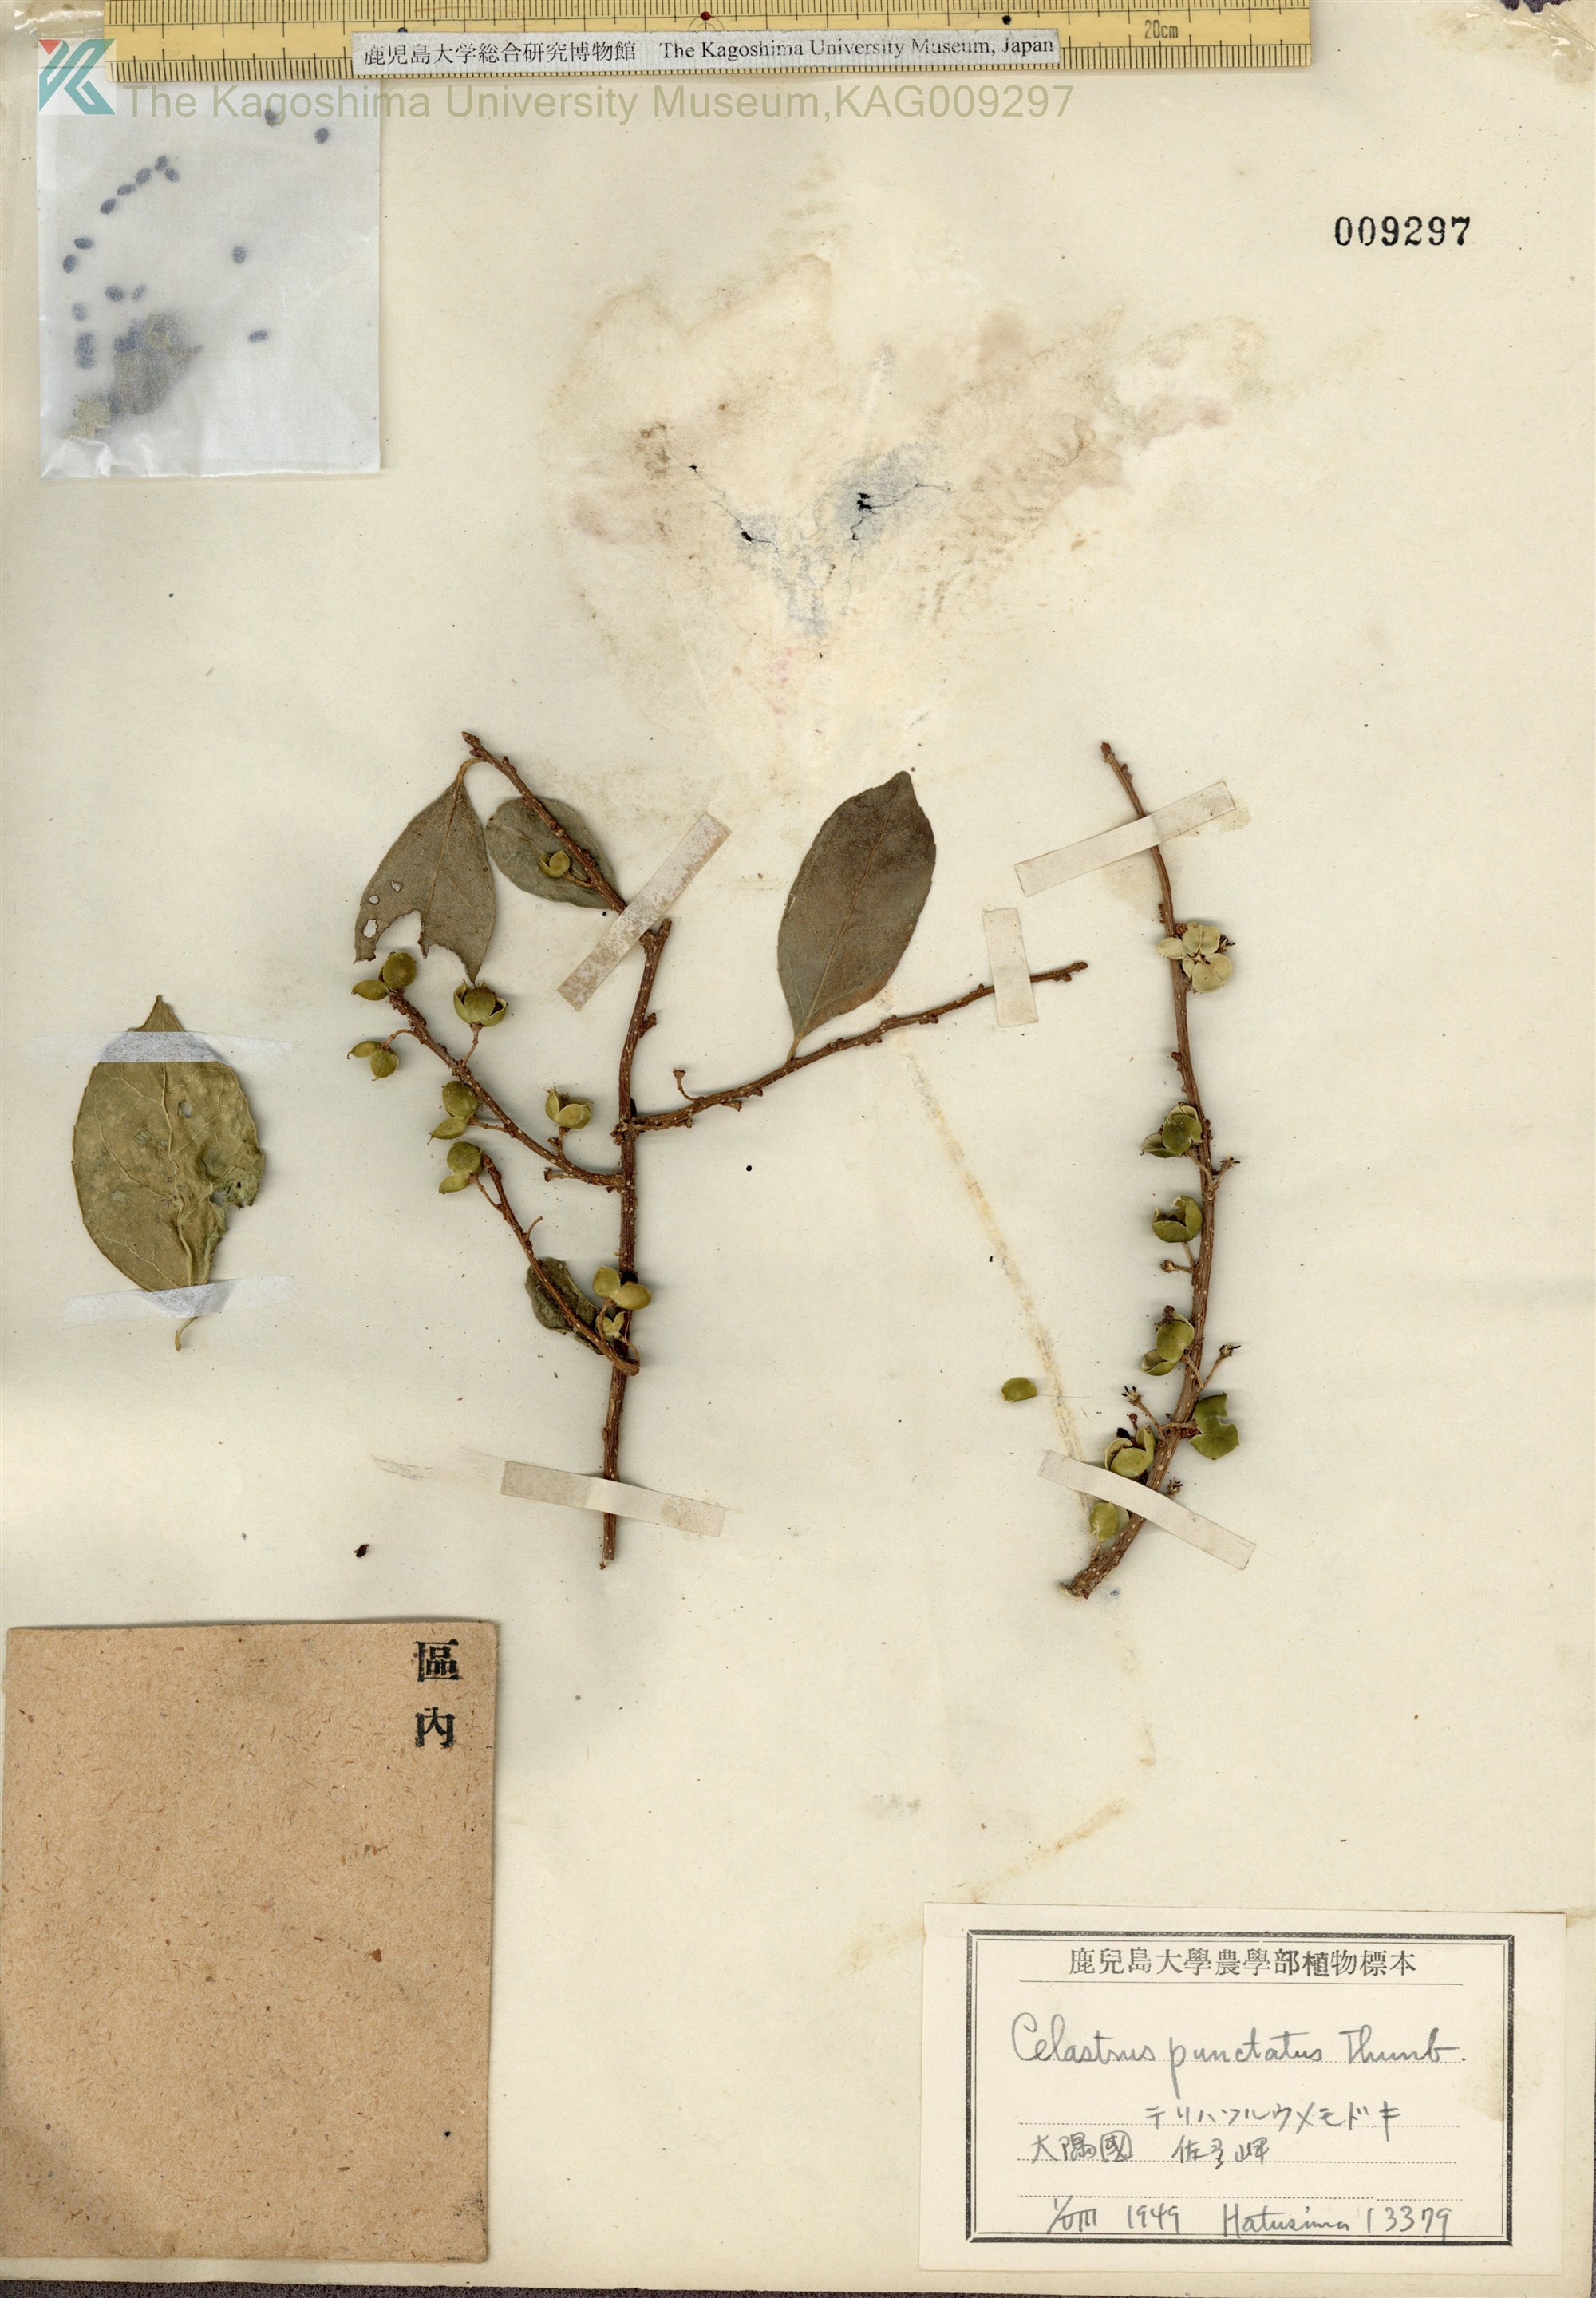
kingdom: Plantae
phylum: Tracheophyta
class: Magnoliopsida
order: Celastrales
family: Celastraceae
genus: Celastrus
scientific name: Celastrus punctatus
